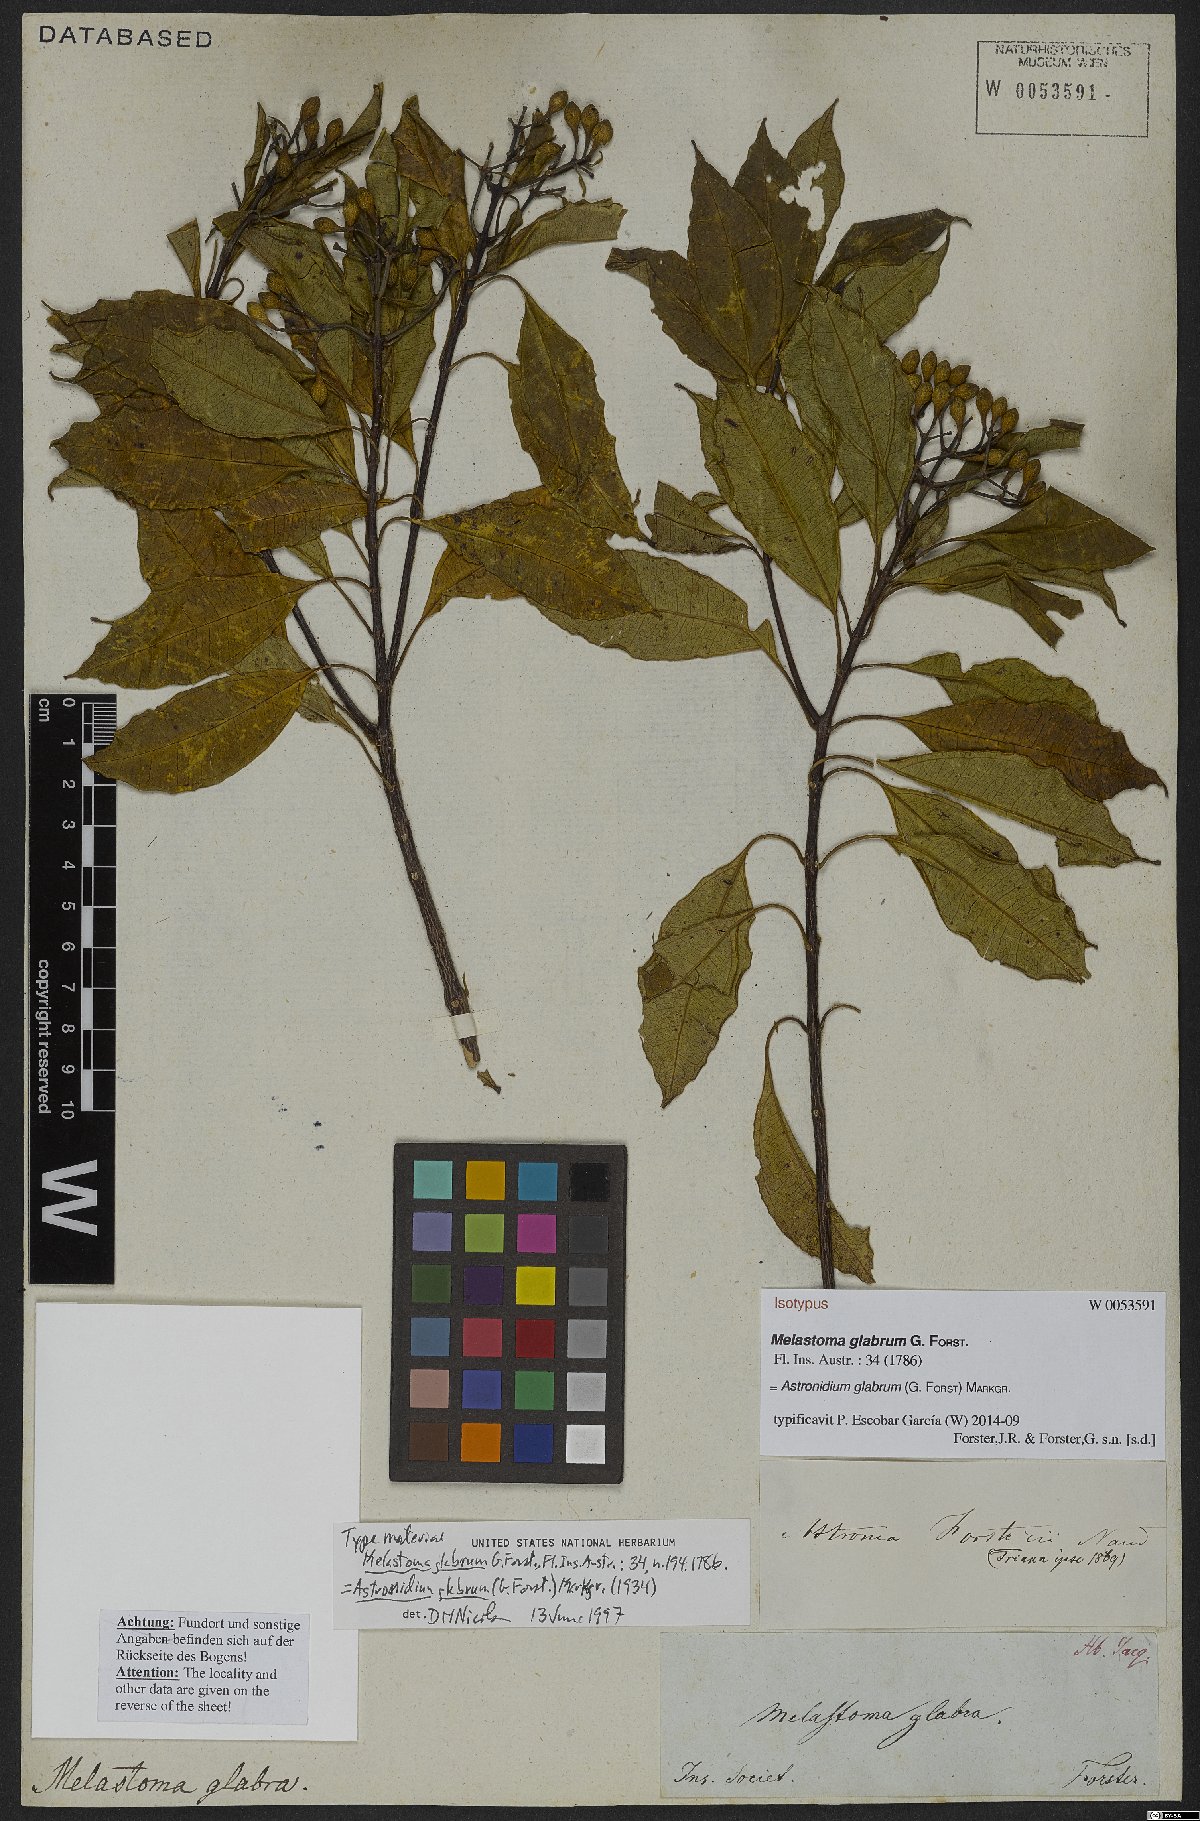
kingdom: Plantae
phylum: Tracheophyta
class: Magnoliopsida
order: Myrtales
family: Melastomataceae
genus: Astronidium
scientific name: Astronidium glabrum
